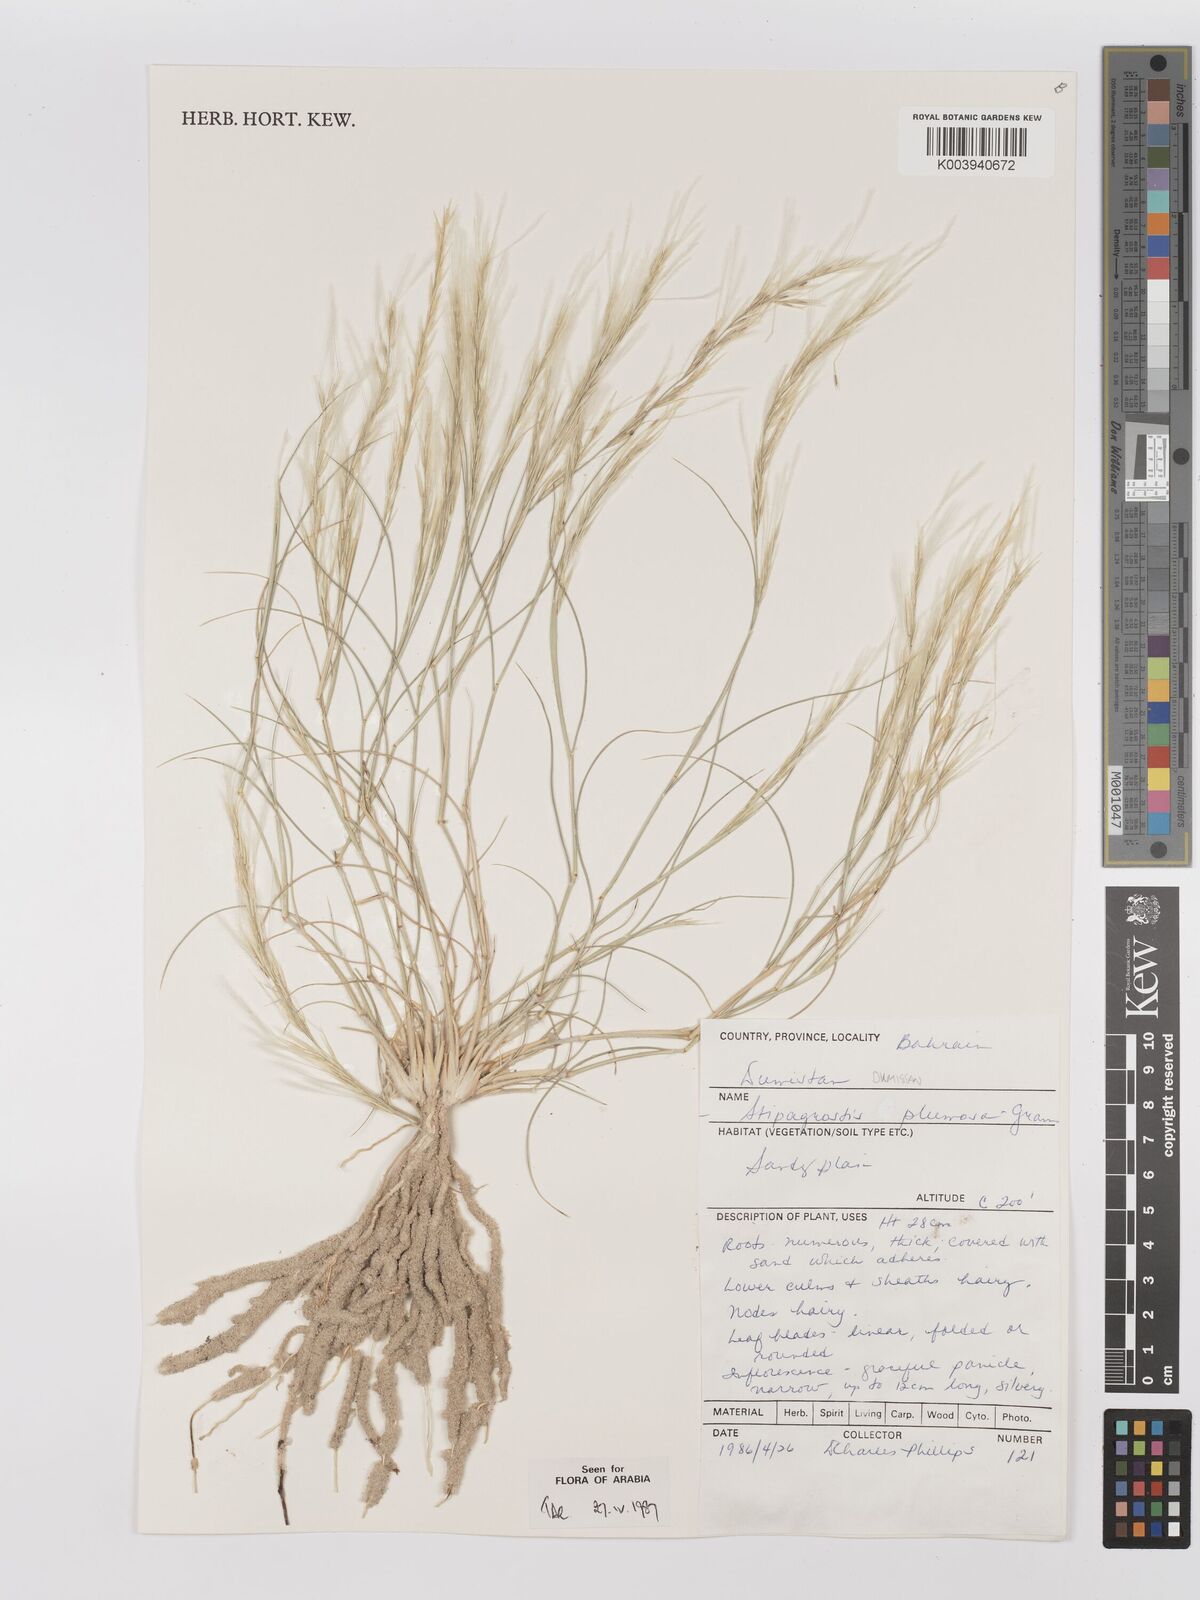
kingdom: Plantae
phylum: Tracheophyta
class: Liliopsida
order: Poales
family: Poaceae
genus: Stipagrostis
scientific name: Stipagrostis plumosa
